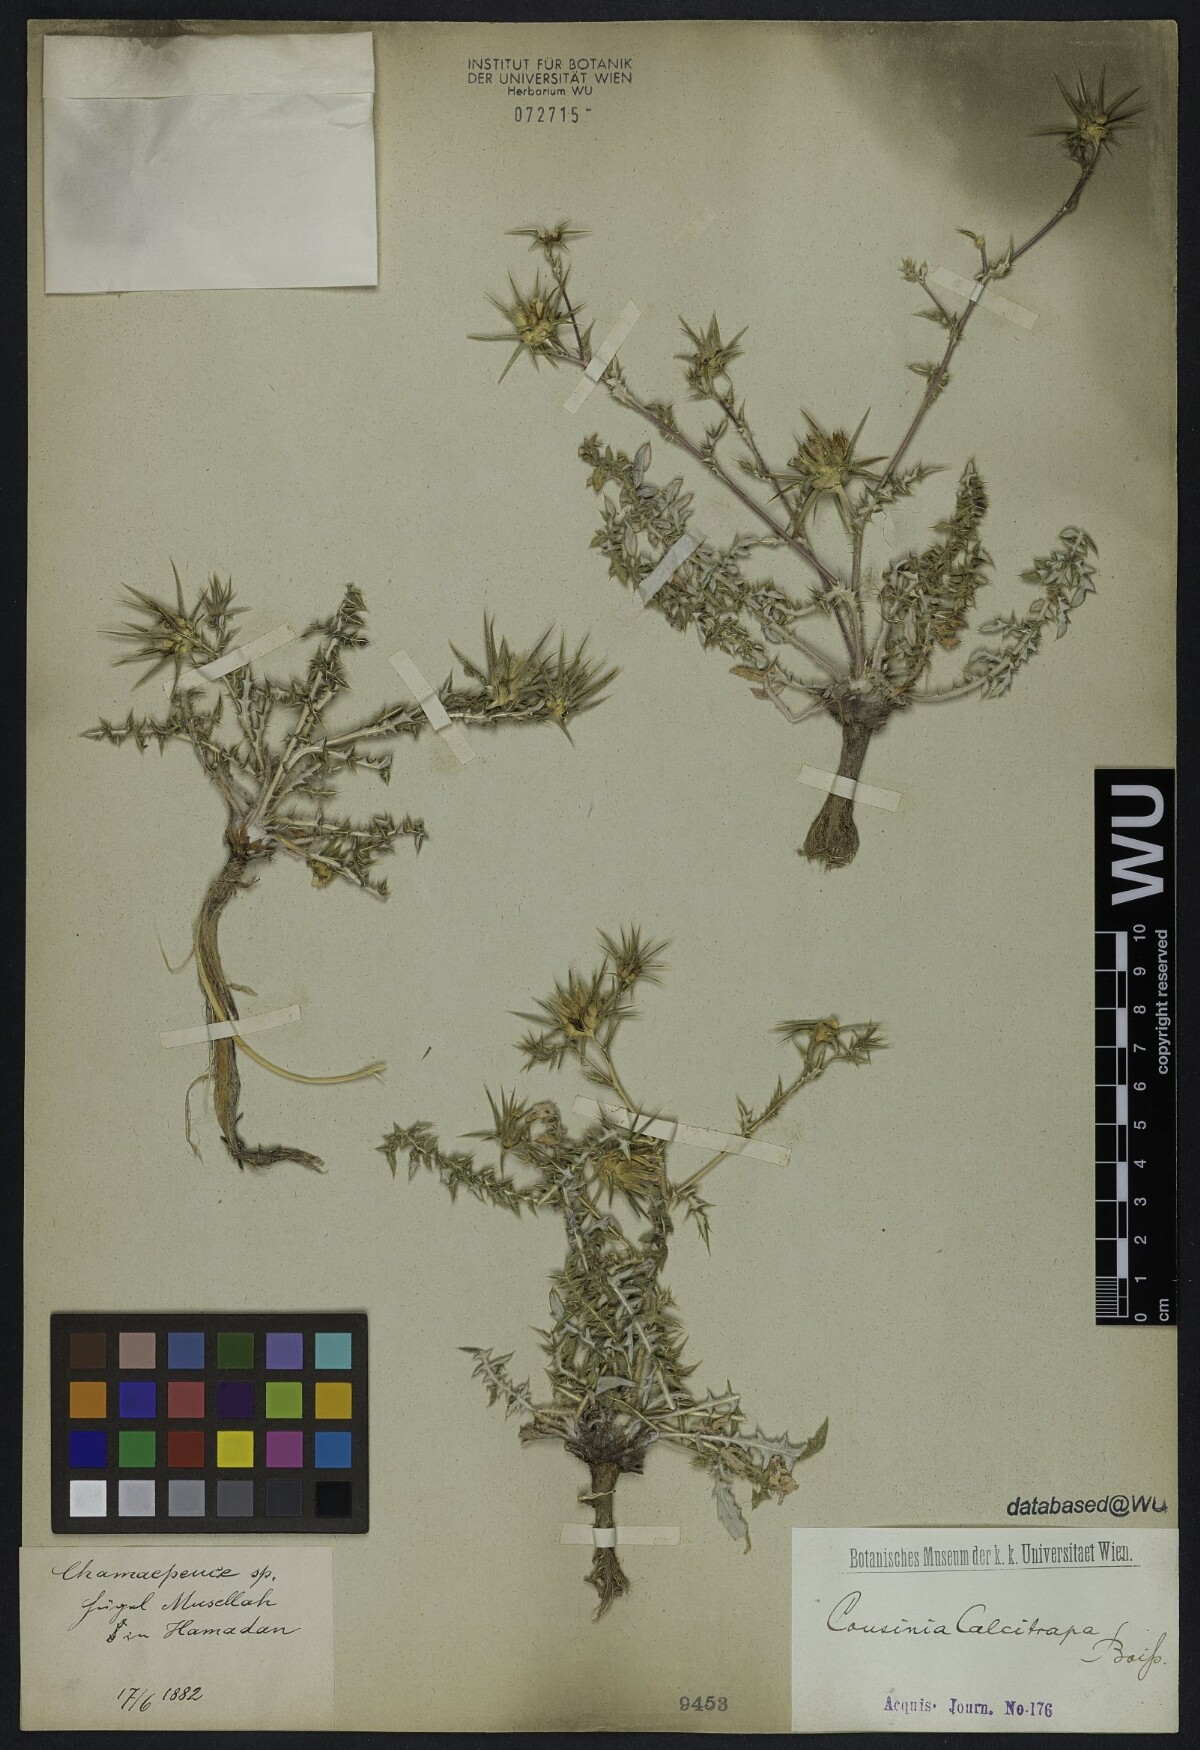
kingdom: Plantae
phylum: Tracheophyta
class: Magnoliopsida
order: Asterales
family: Asteraceae
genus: Cousinia
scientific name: Cousinia calcitrapa
